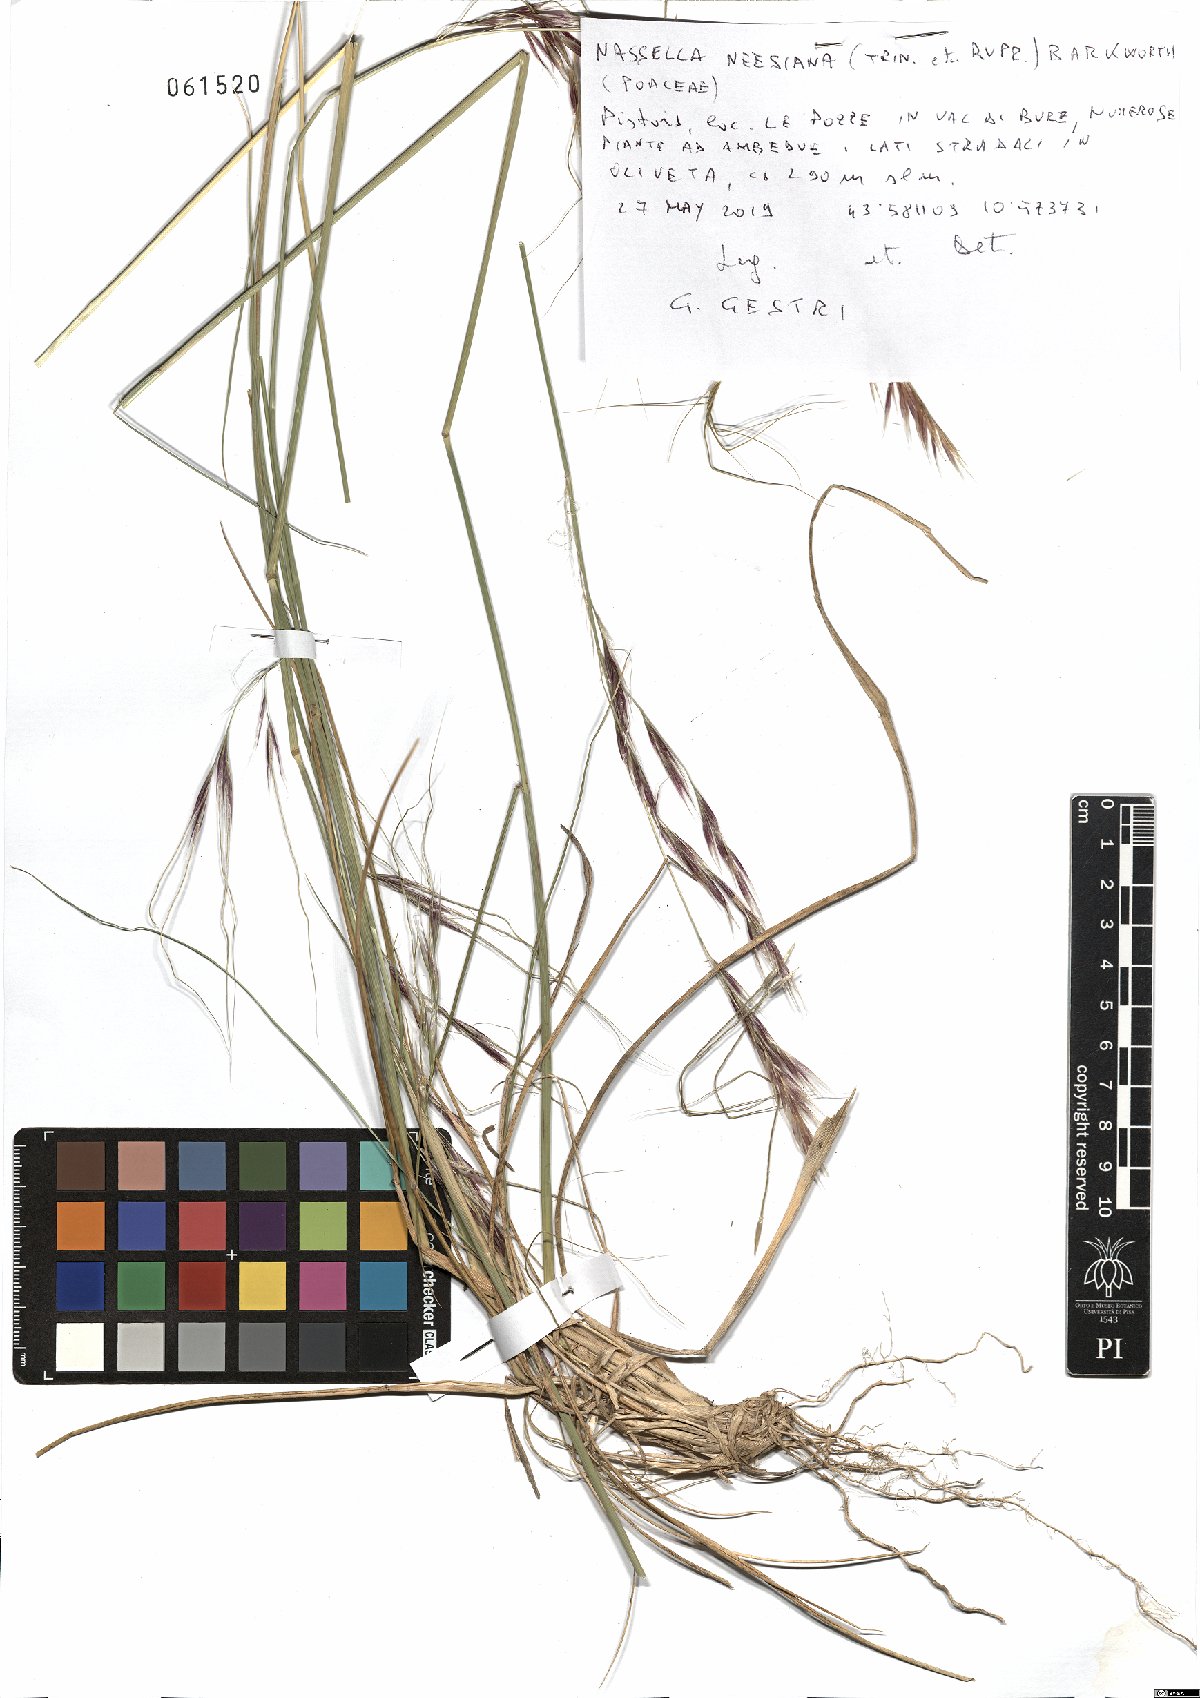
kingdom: Plantae
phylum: Tracheophyta
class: Liliopsida
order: Poales
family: Poaceae
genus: Nassella
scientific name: Nassella neesiana
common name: American needle-grass
